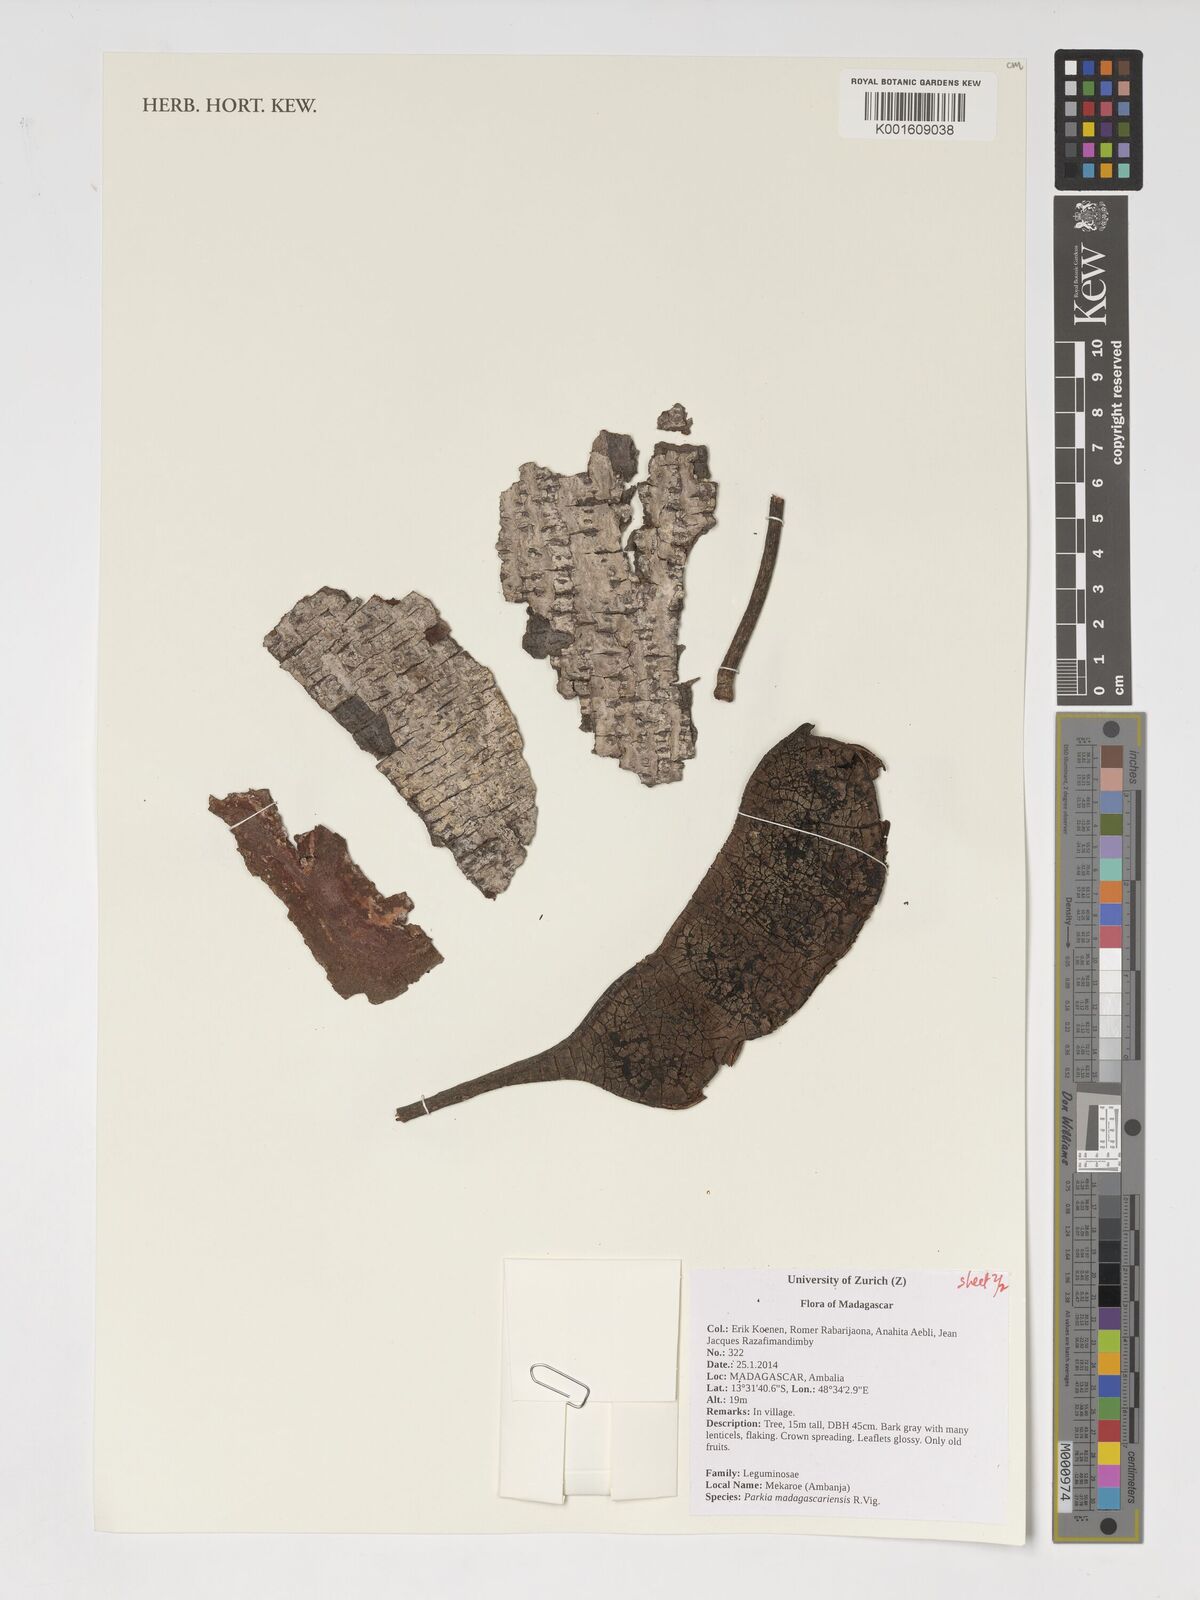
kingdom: Plantae
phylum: Tracheophyta
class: Magnoliopsida
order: Fabales
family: Fabaceae
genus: Parkia
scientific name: Parkia madagascariensis
